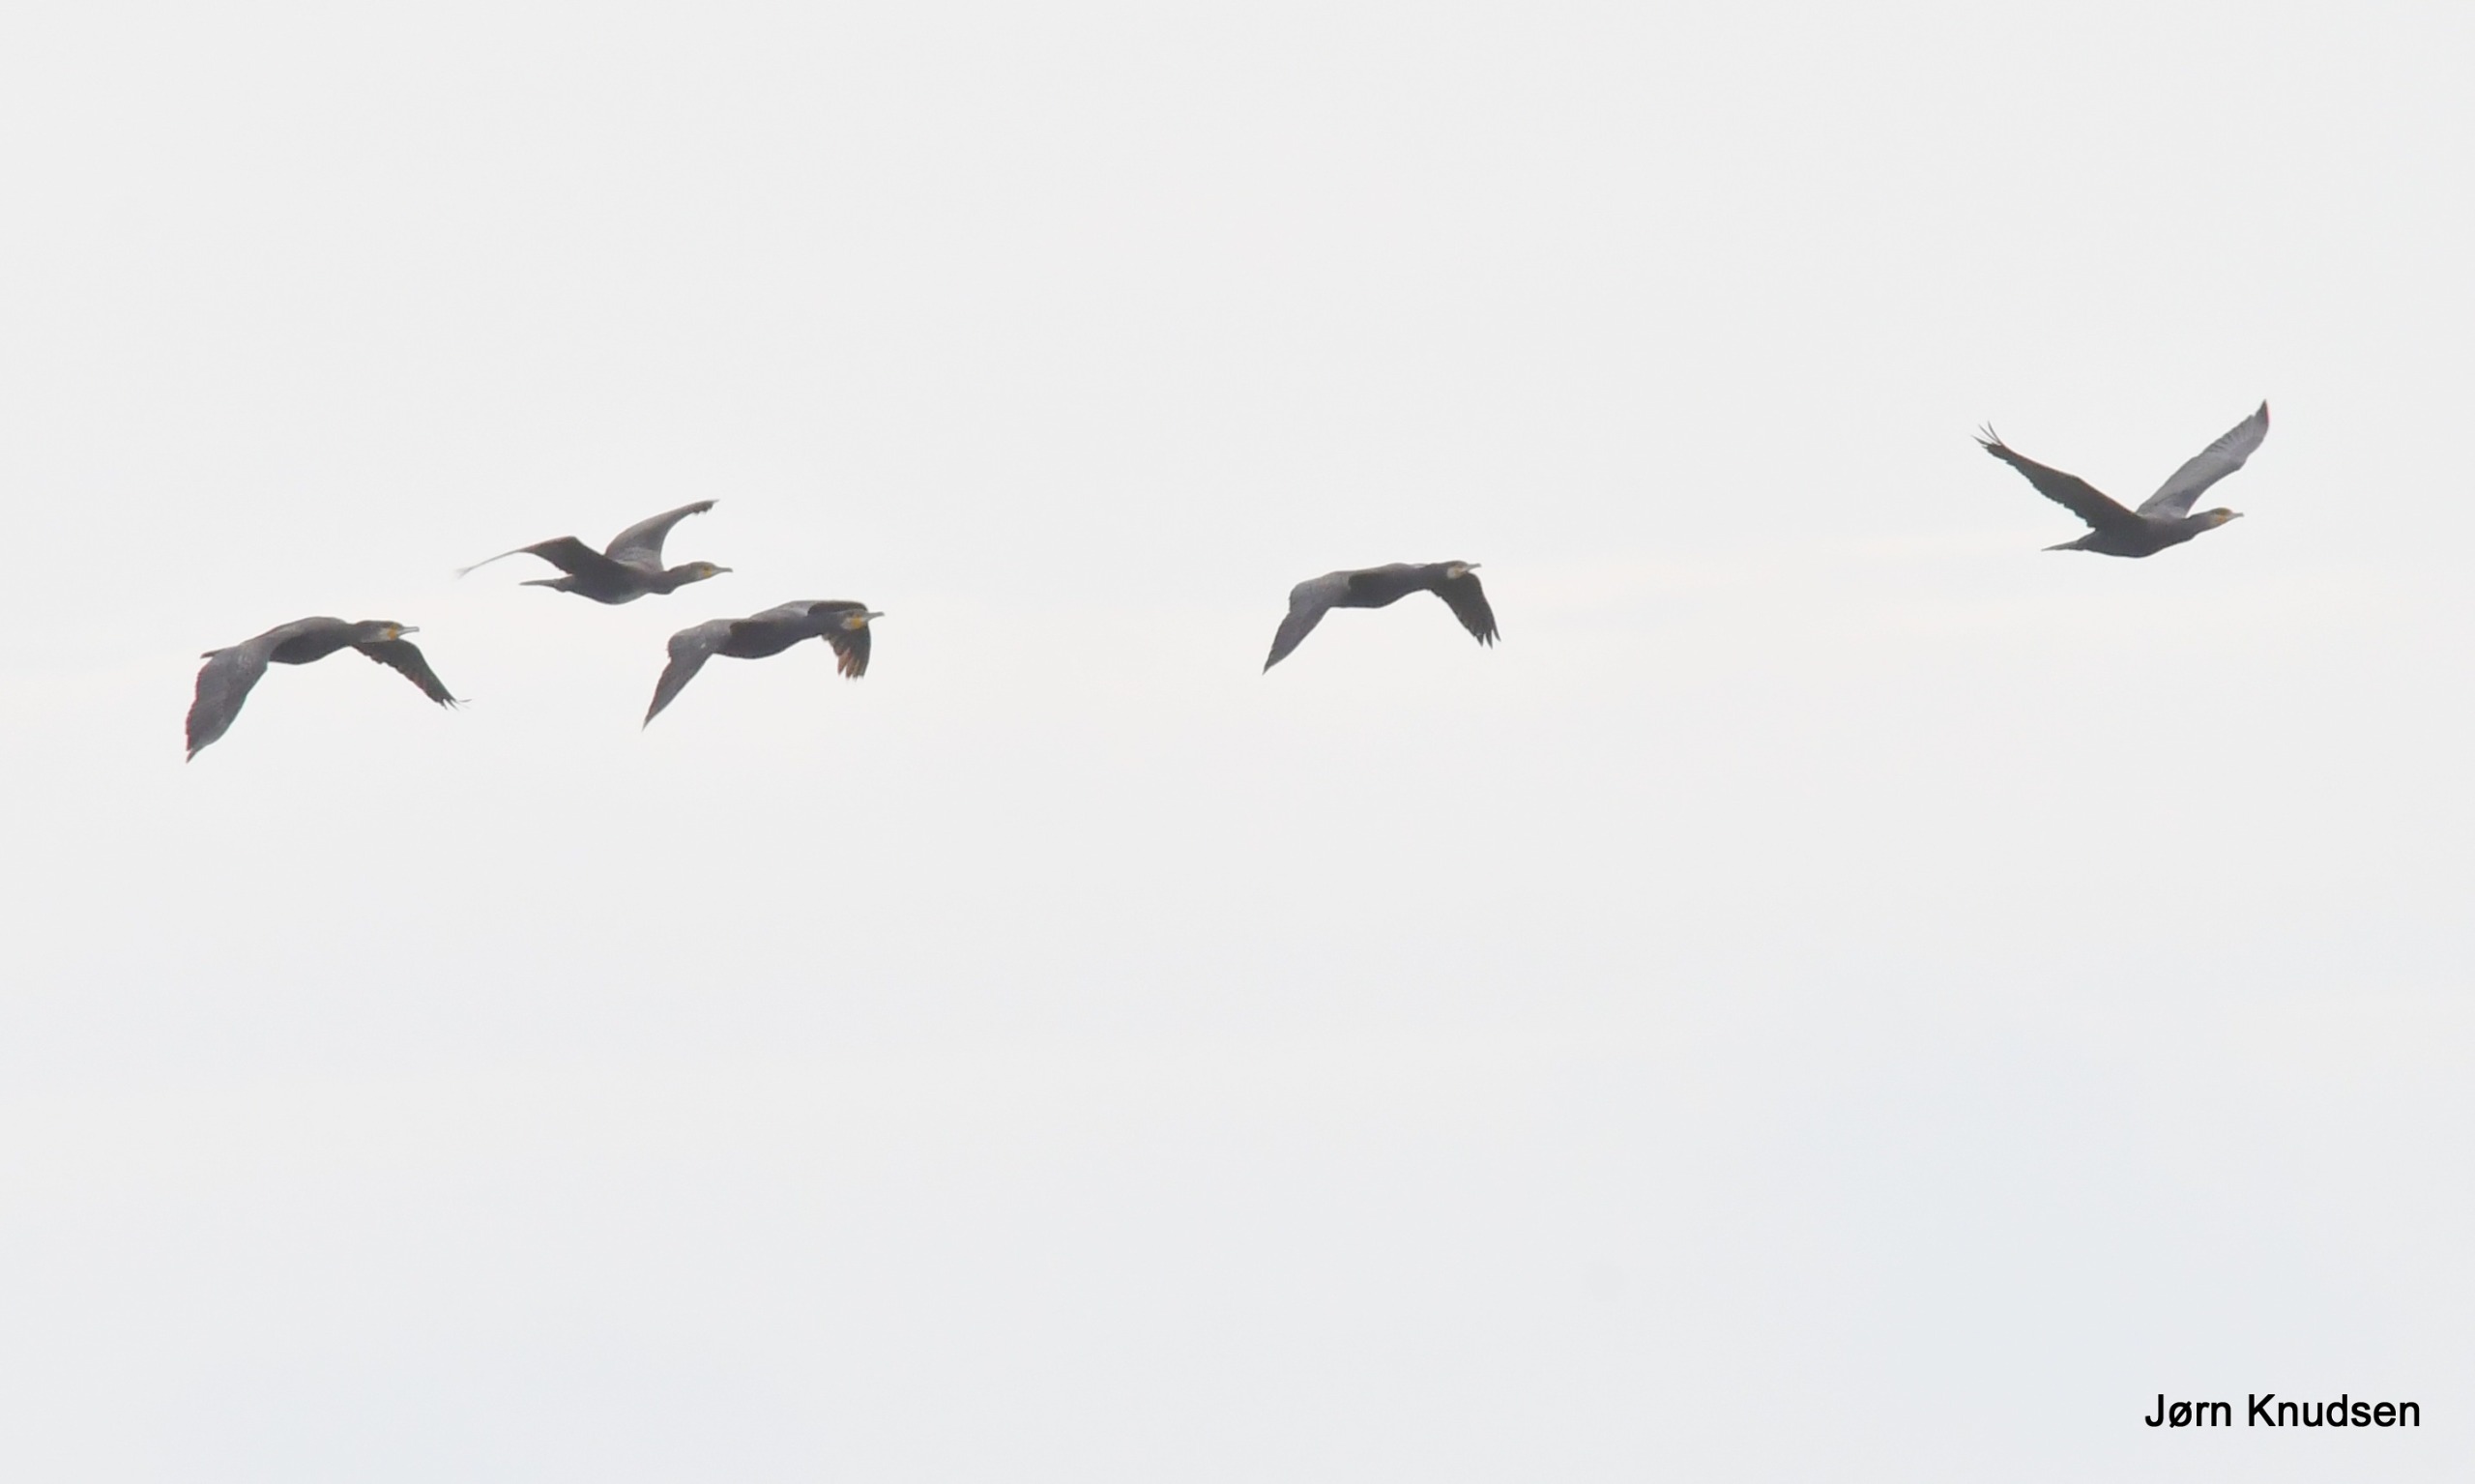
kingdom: Animalia
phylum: Chordata
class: Aves
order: Suliformes
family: Phalacrocoracidae
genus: Phalacrocorax
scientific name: Phalacrocorax carbo
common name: Skarv
